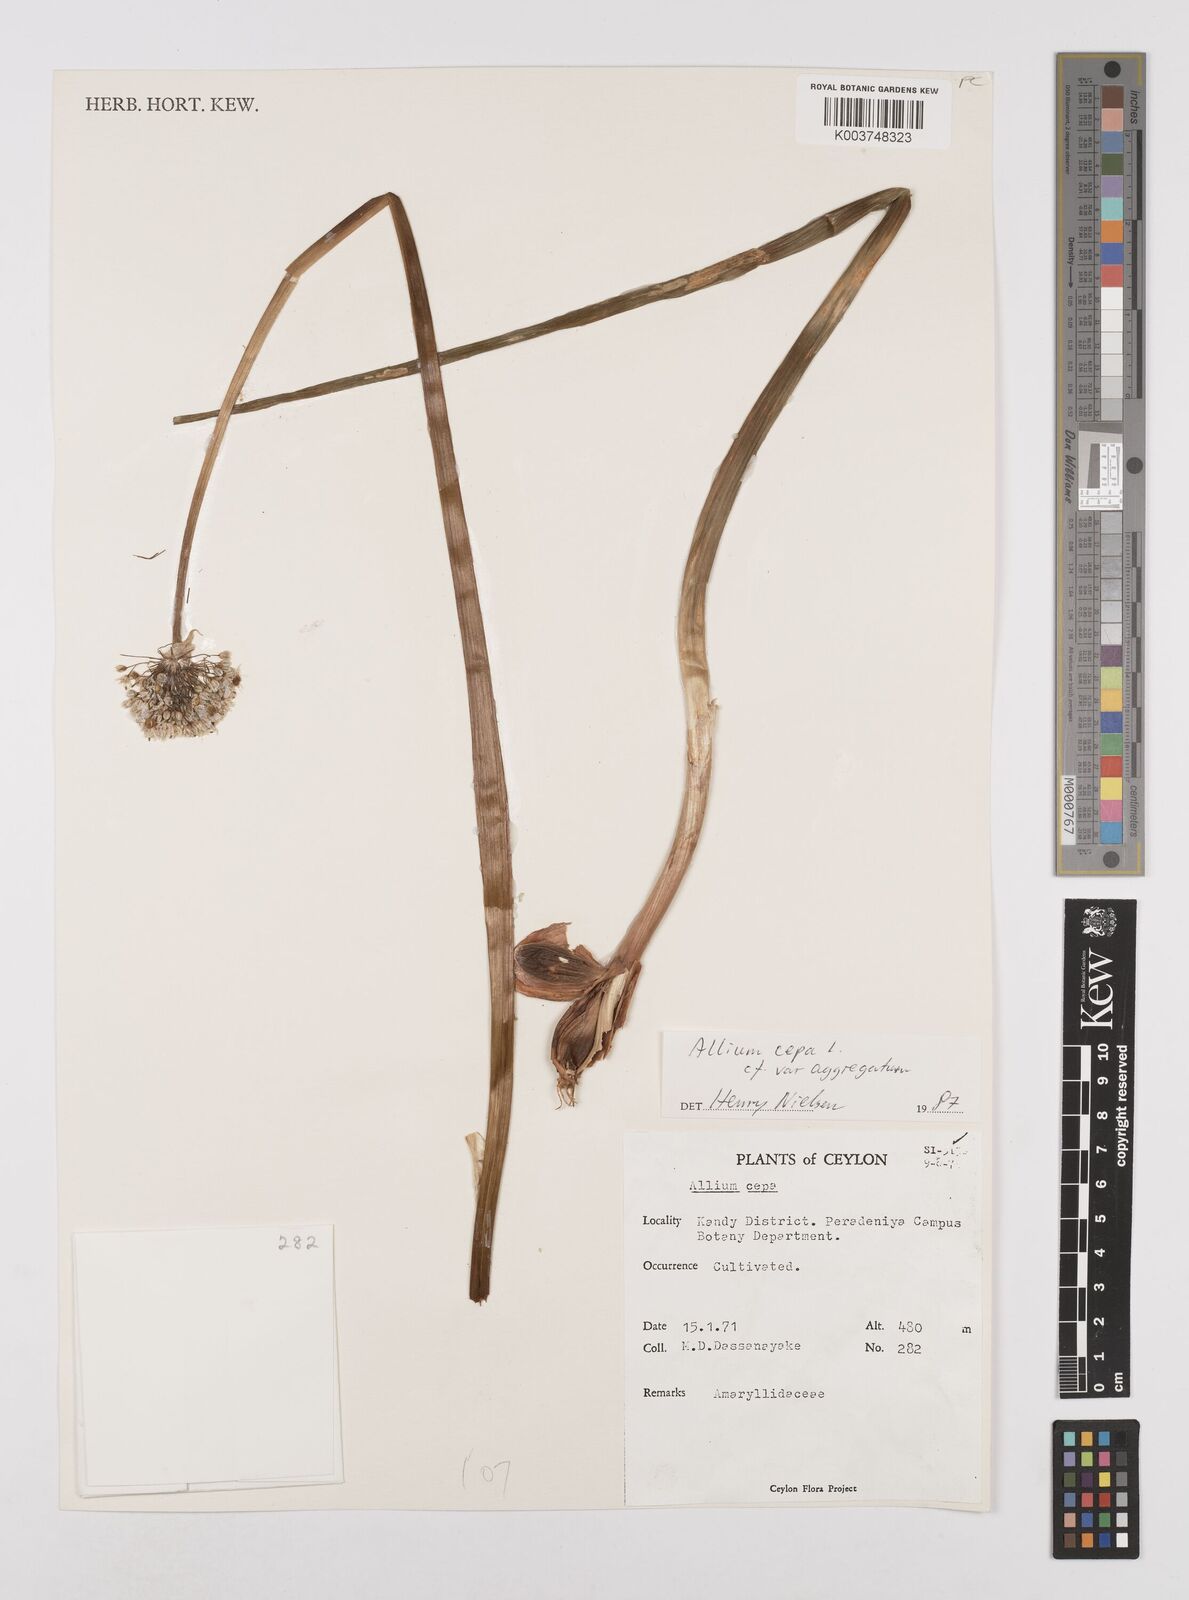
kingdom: Plantae
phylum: Tracheophyta
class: Liliopsida
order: Asparagales
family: Amaryllidaceae
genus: Allium
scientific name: Allium cepa
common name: Onion
